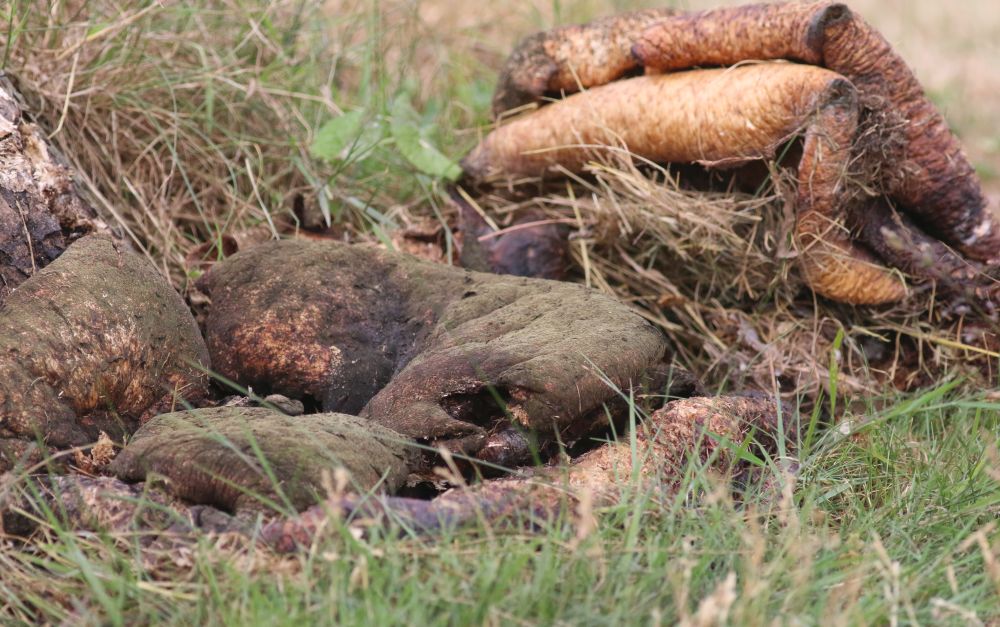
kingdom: Fungi
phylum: Basidiomycota
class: Agaricomycetes
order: Polyporales
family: Polyporaceae
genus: Cerioporus
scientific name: Cerioporus squamosus
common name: skællet stilkporesvamp
